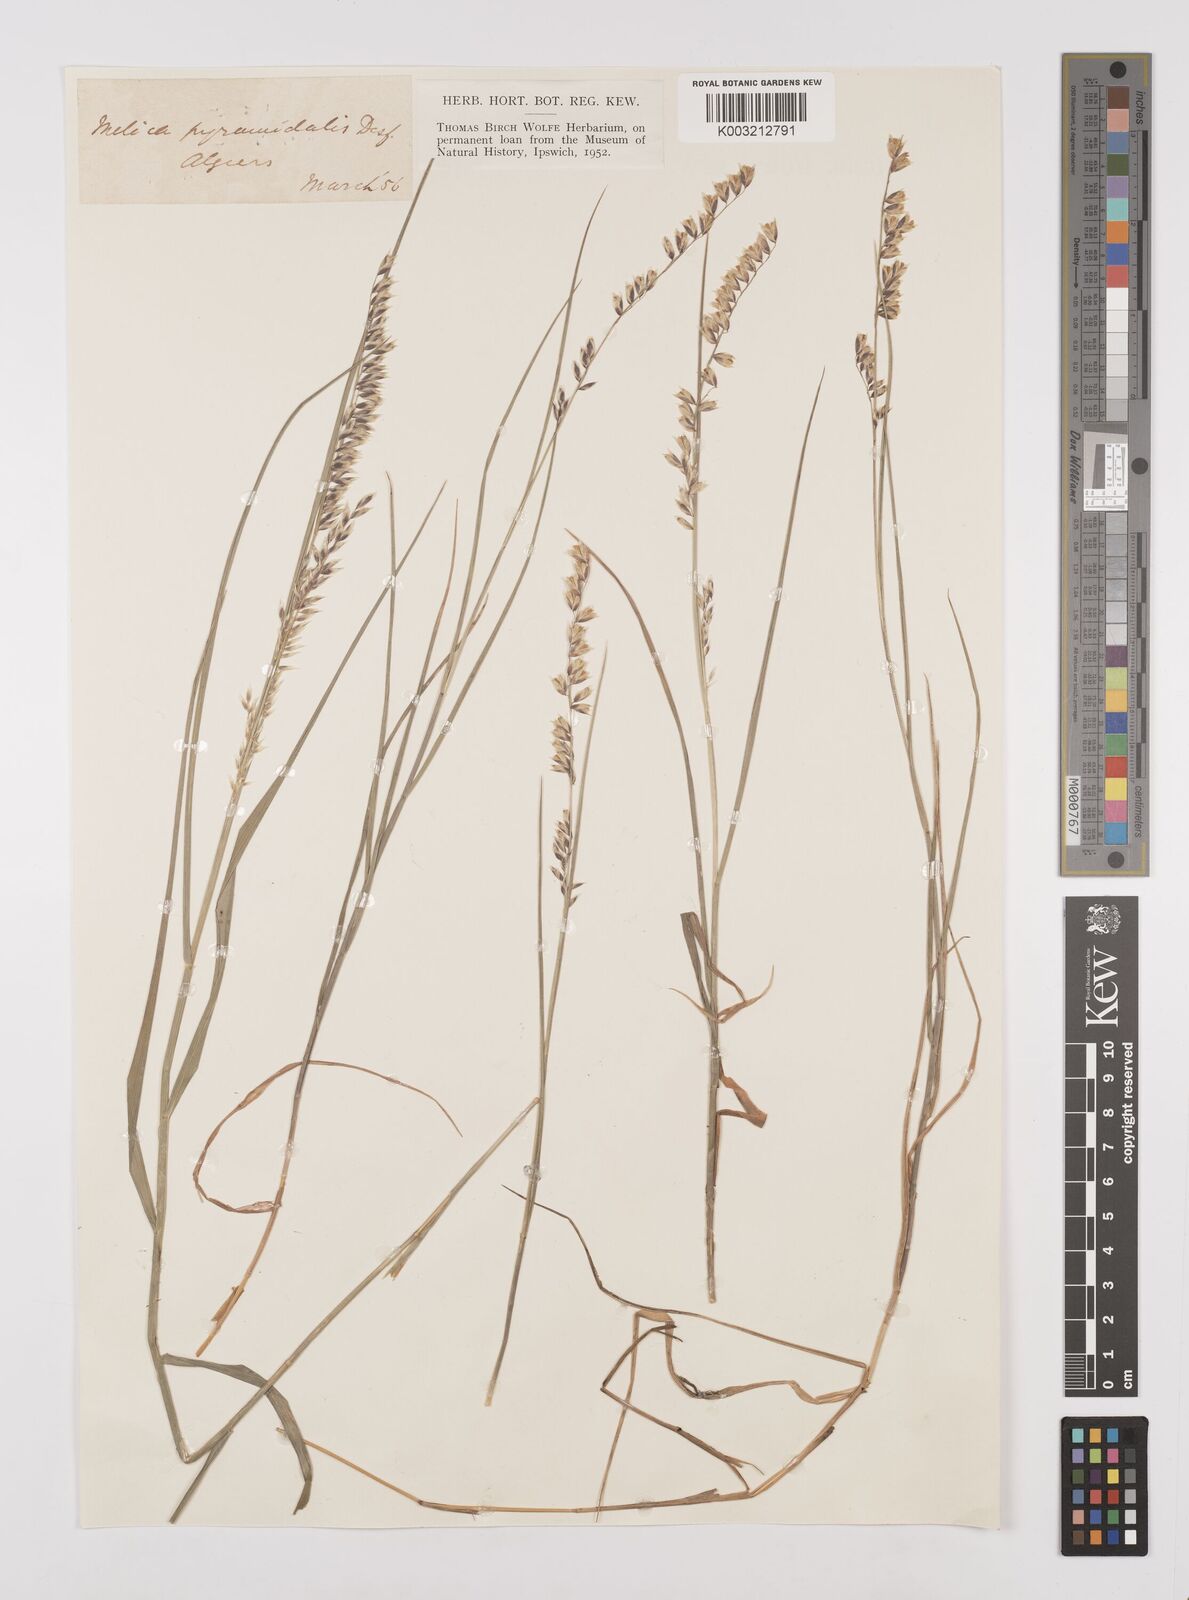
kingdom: Plantae
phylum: Tracheophyta
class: Liliopsida
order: Poales
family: Poaceae
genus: Melica
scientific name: Melica minuta
